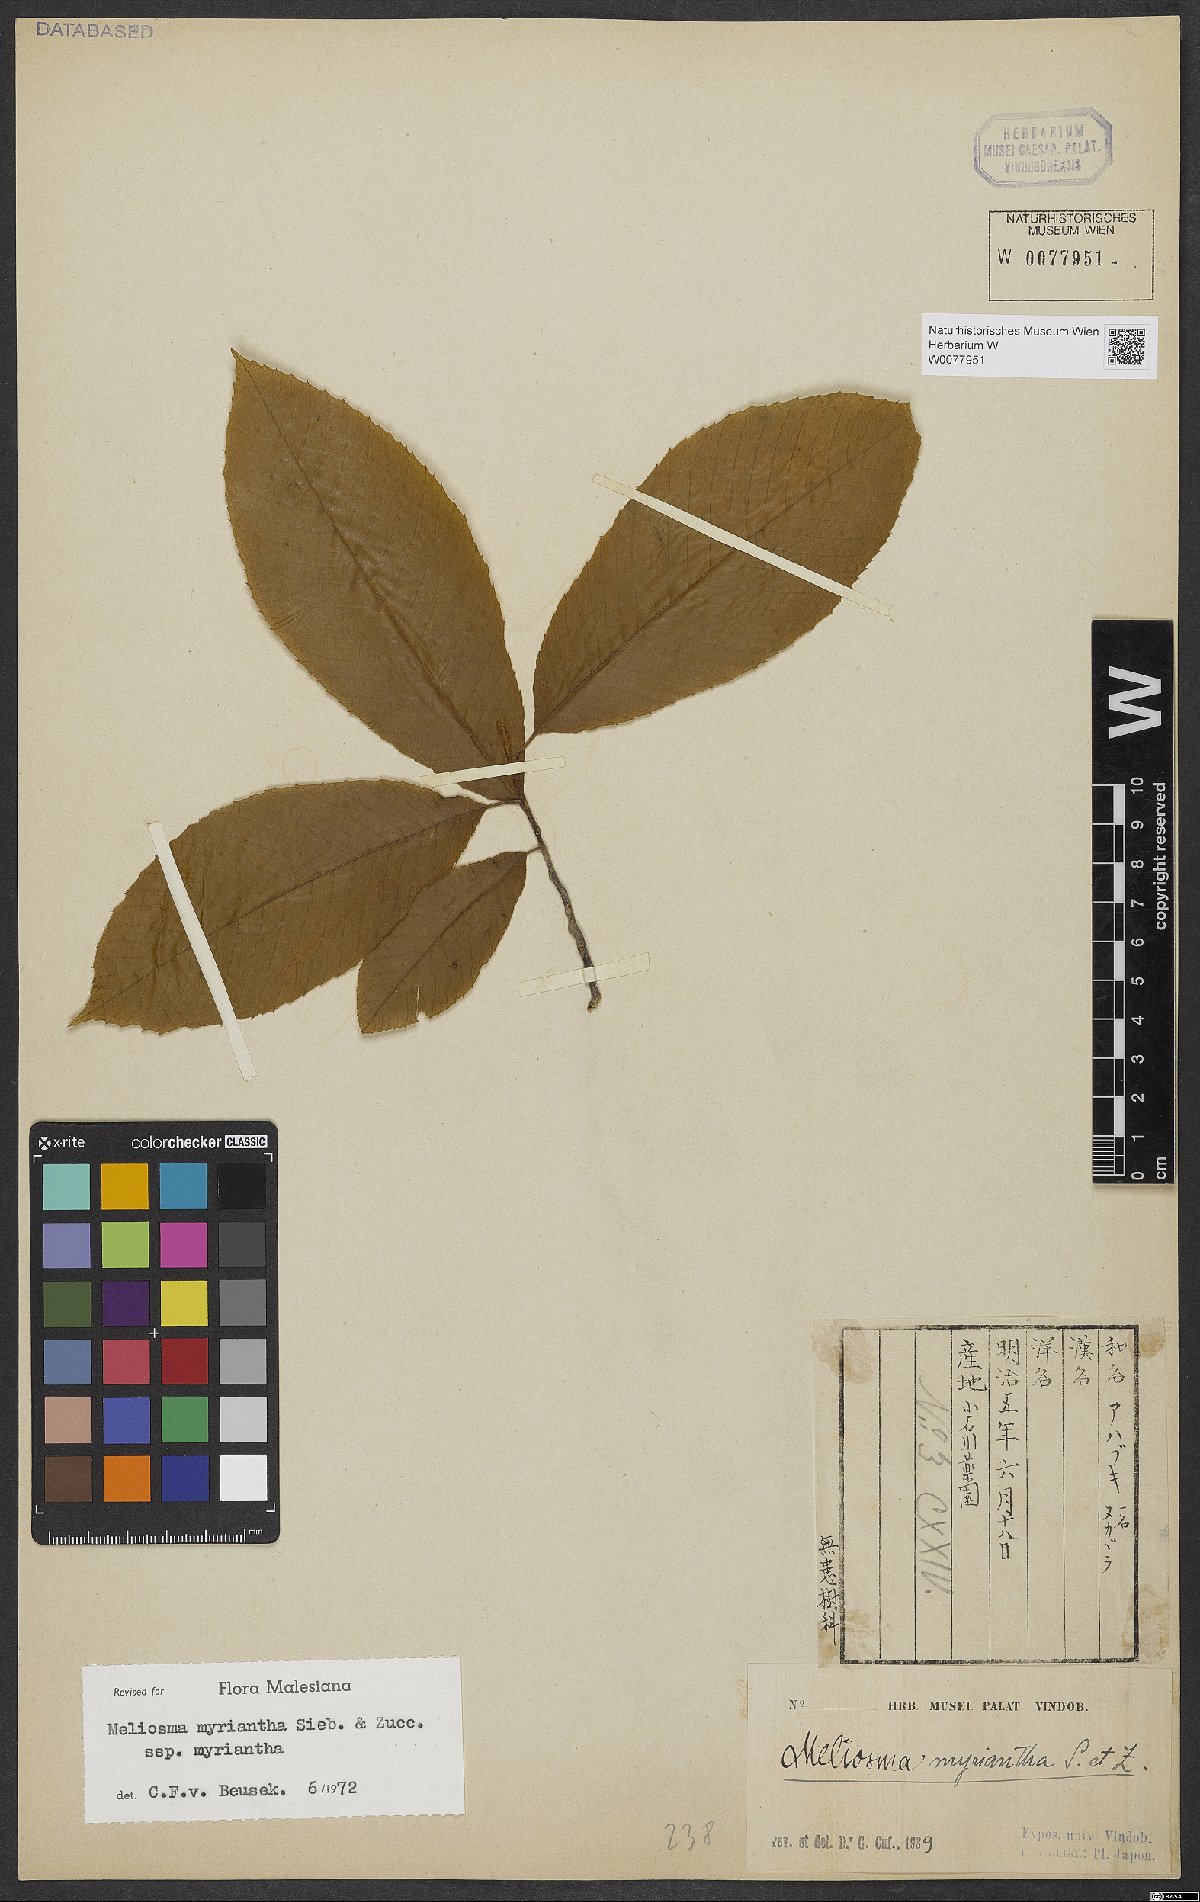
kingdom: Plantae
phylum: Tracheophyta
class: Magnoliopsida
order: Proteales
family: Sabiaceae
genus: Meliosma
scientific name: Meliosma myriantha
